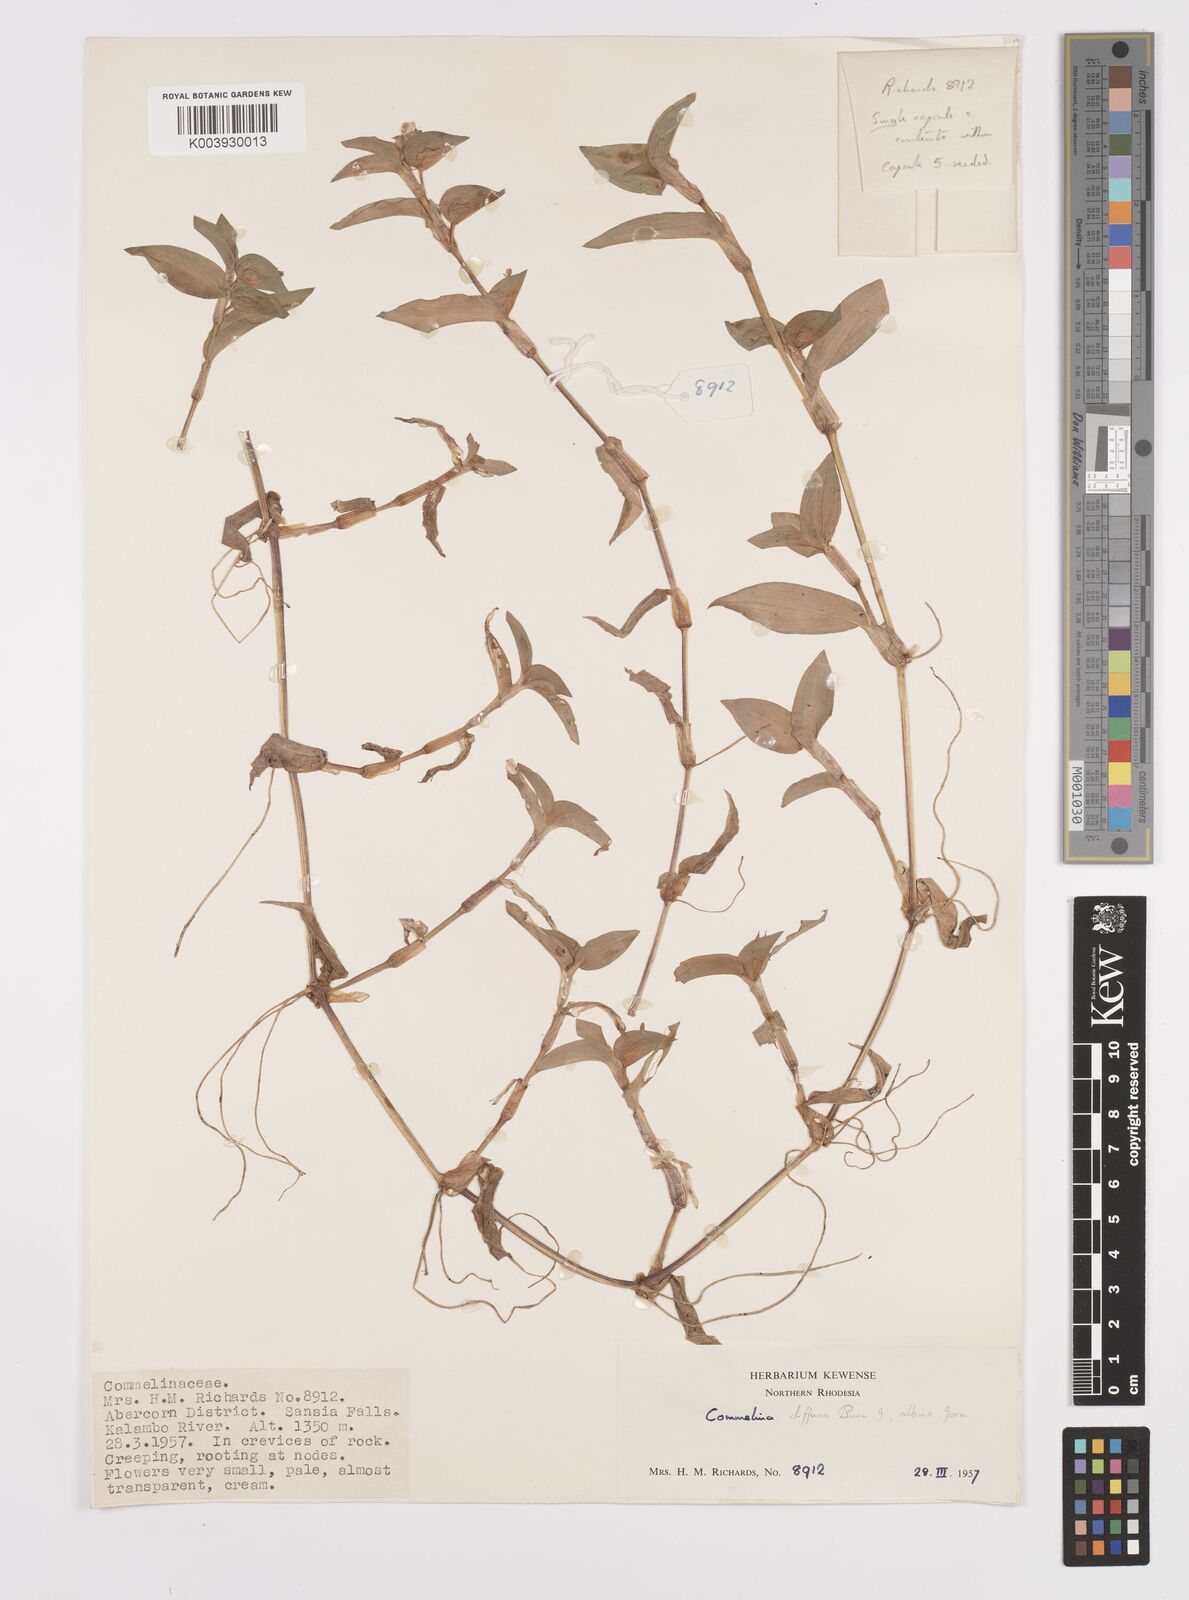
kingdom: Plantae
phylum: Tracheophyta
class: Liliopsida
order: Commelinales
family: Commelinaceae
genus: Commelina
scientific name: Commelina diffusa
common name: Climbing dayflower
